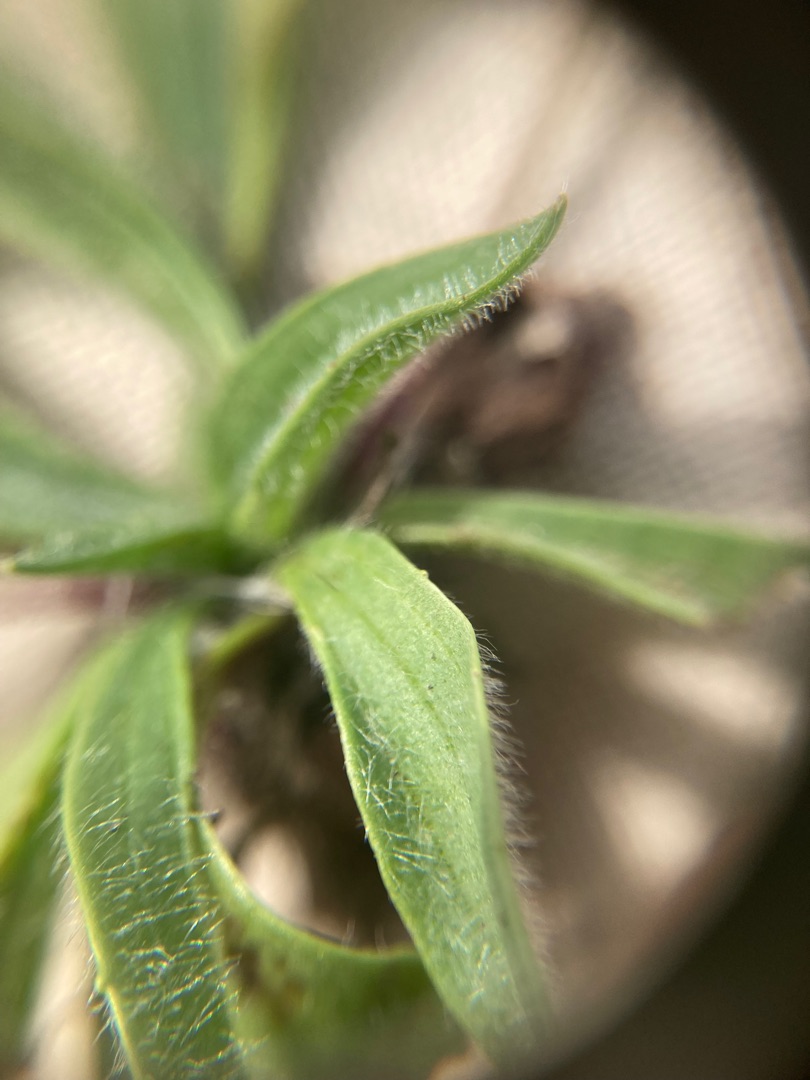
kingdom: Plantae
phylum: Tracheophyta
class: Magnoliopsida
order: Lamiales
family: Plantaginaceae
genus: Plantago
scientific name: Plantago lanceolata
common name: Lancet-vejbred
